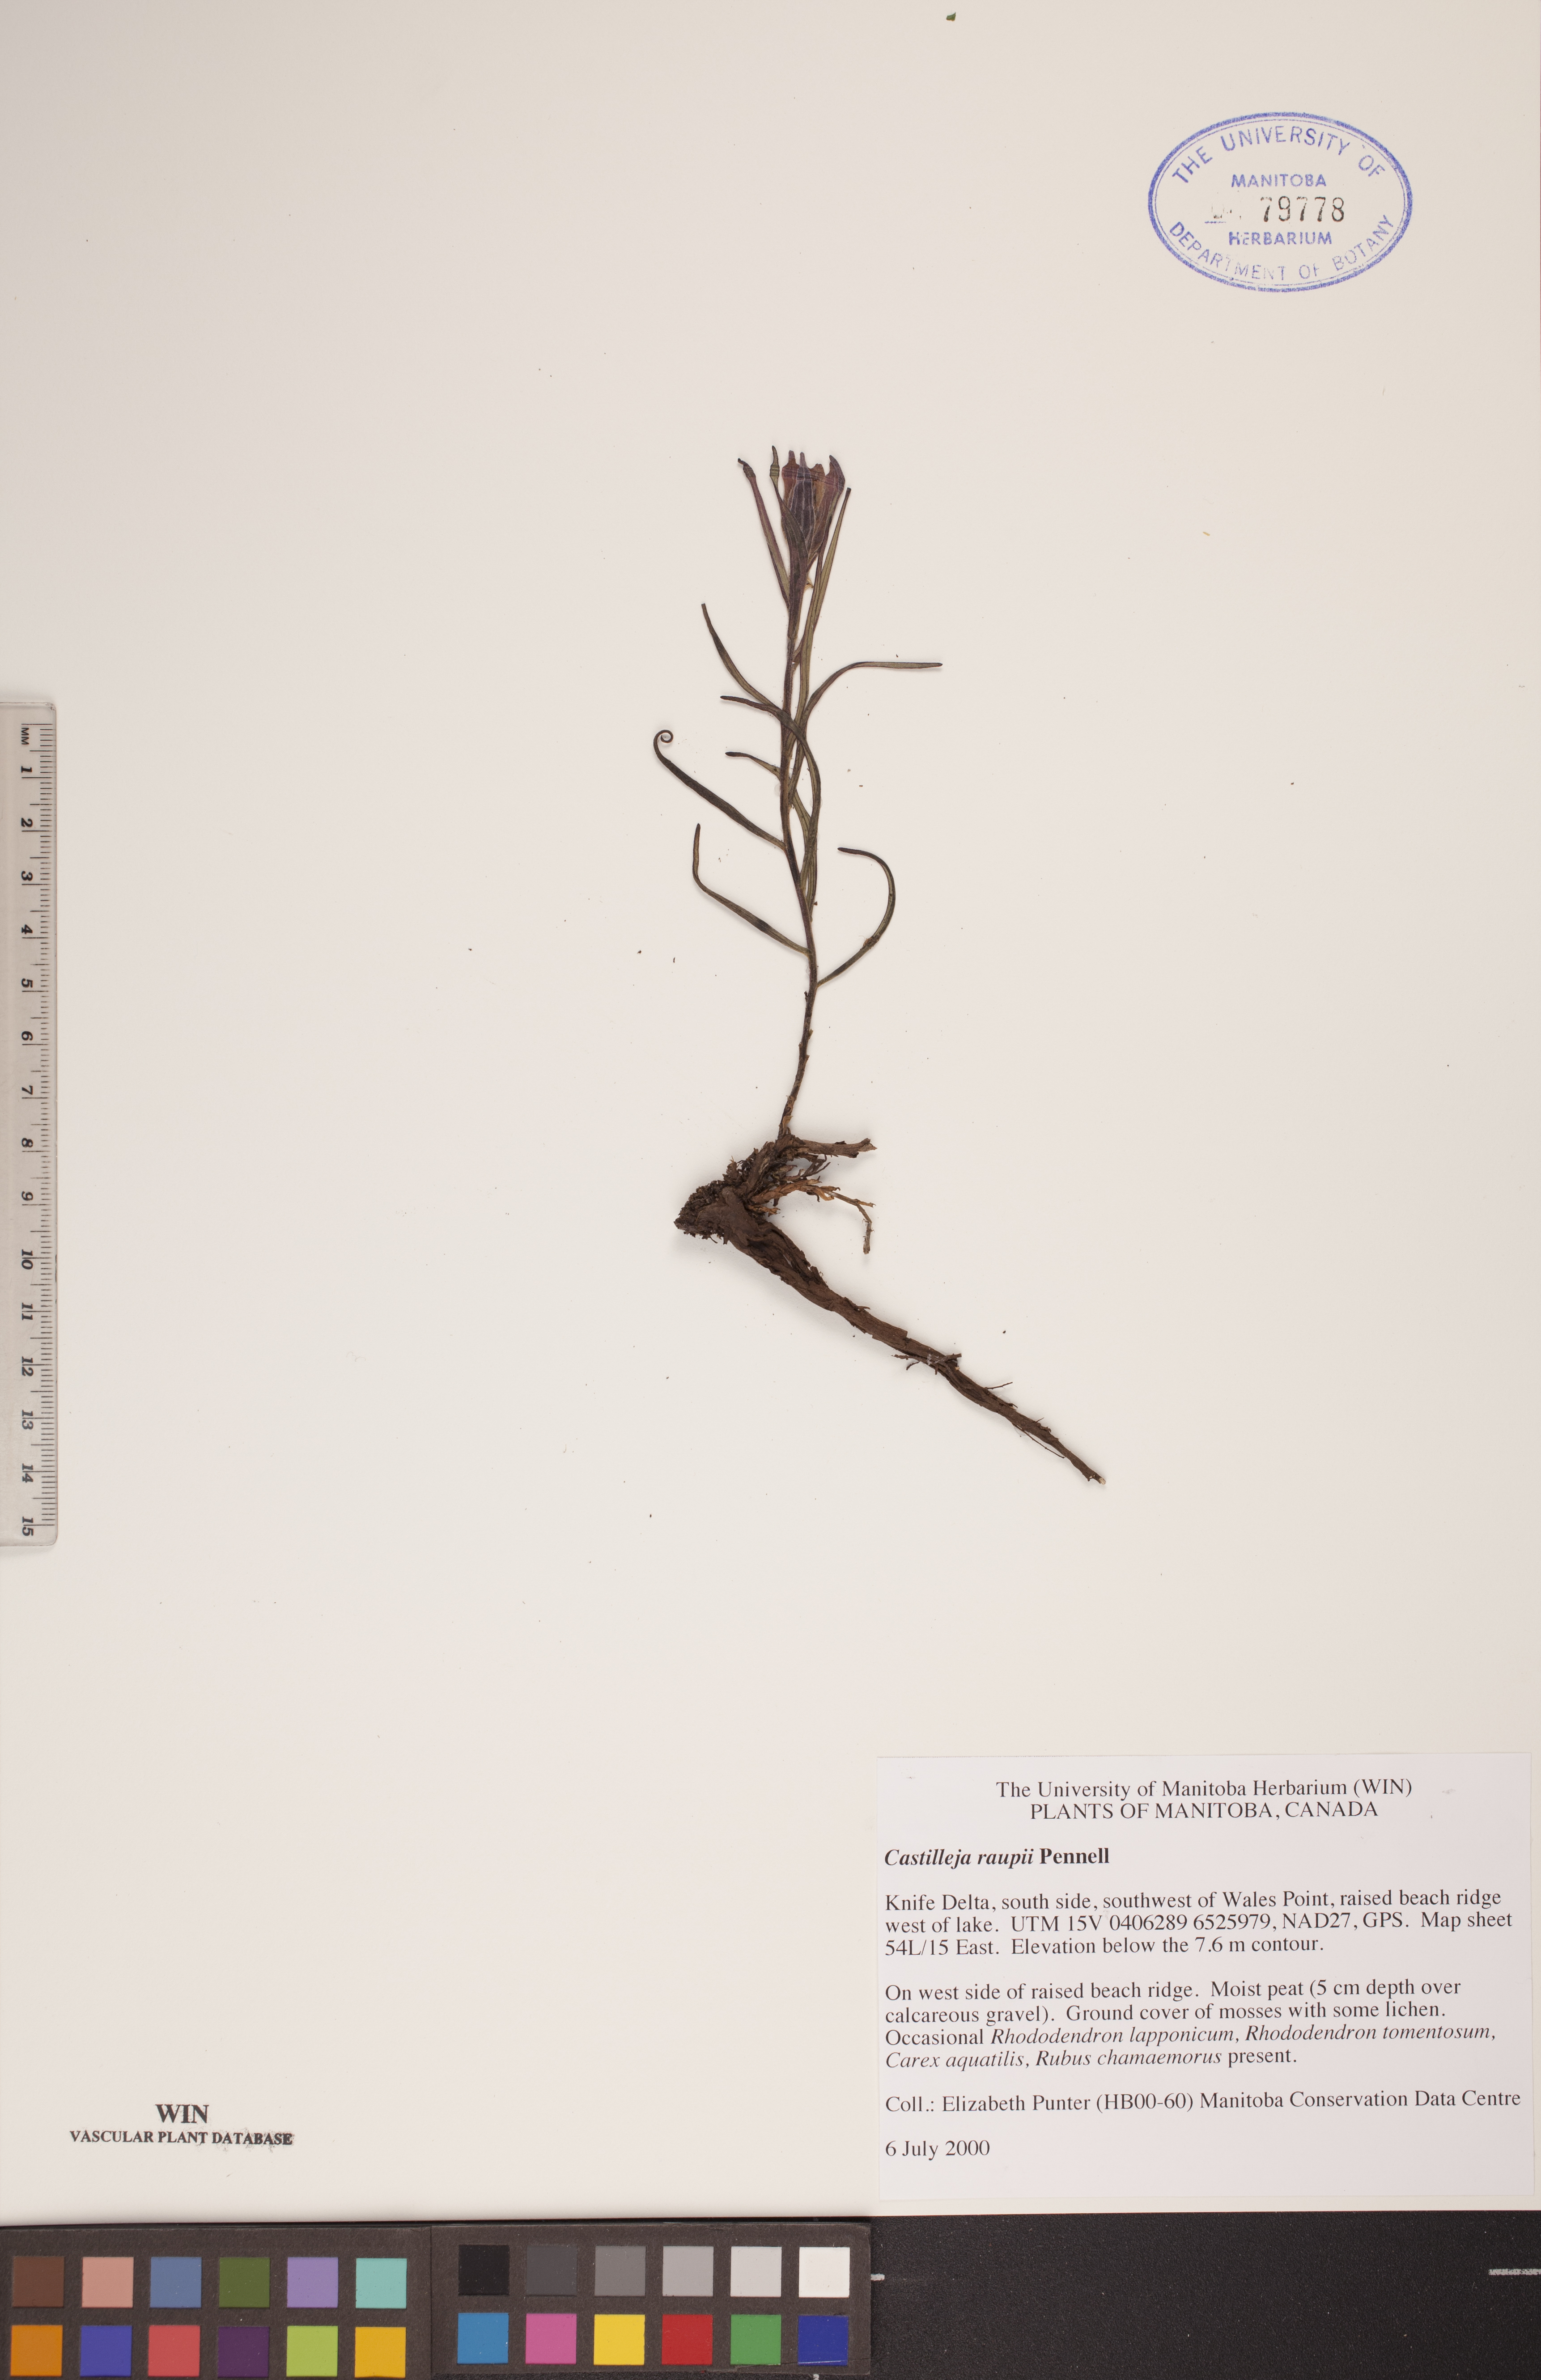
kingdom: Plantae
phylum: Tracheophyta
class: Magnoliopsida
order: Lamiales
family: Orobanchaceae
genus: Castilleja
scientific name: Castilleja raupii
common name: Raup's paintbrush
